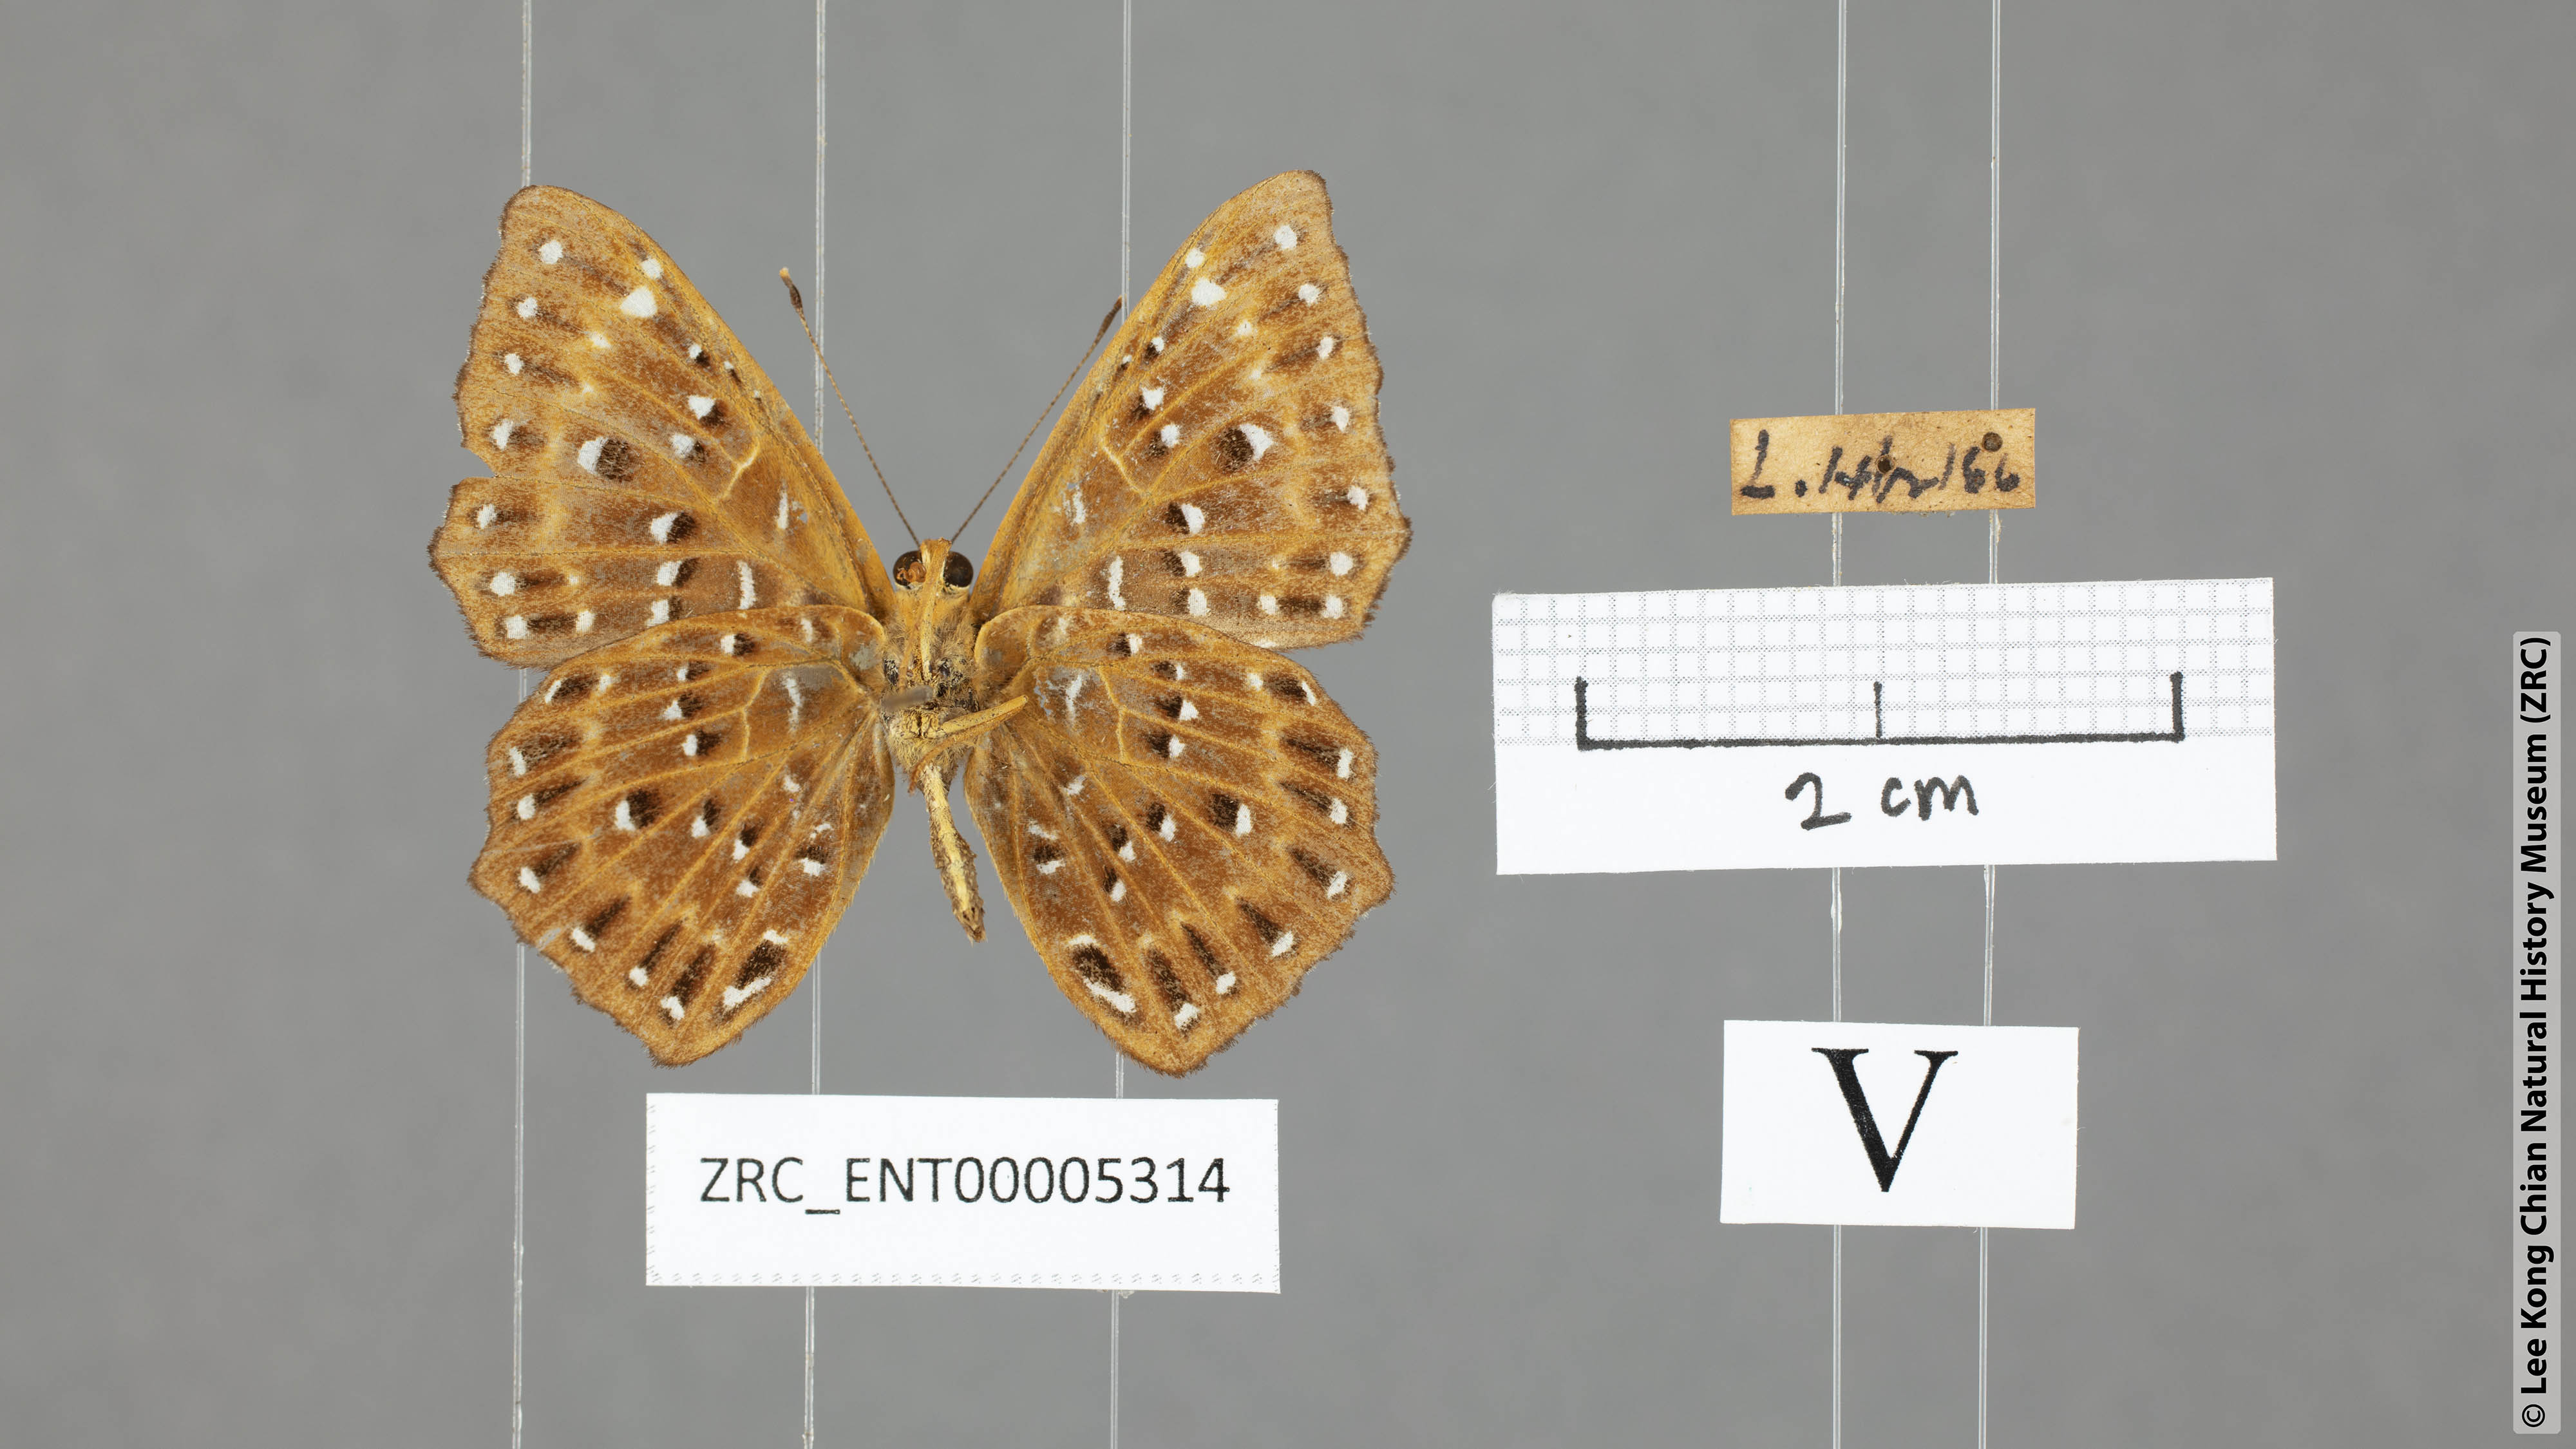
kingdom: Animalia
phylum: Arthropoda
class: Insecta
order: Lepidoptera
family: Riodinidae
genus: Zemeros
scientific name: Zemeros flegyas
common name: Punchinello
